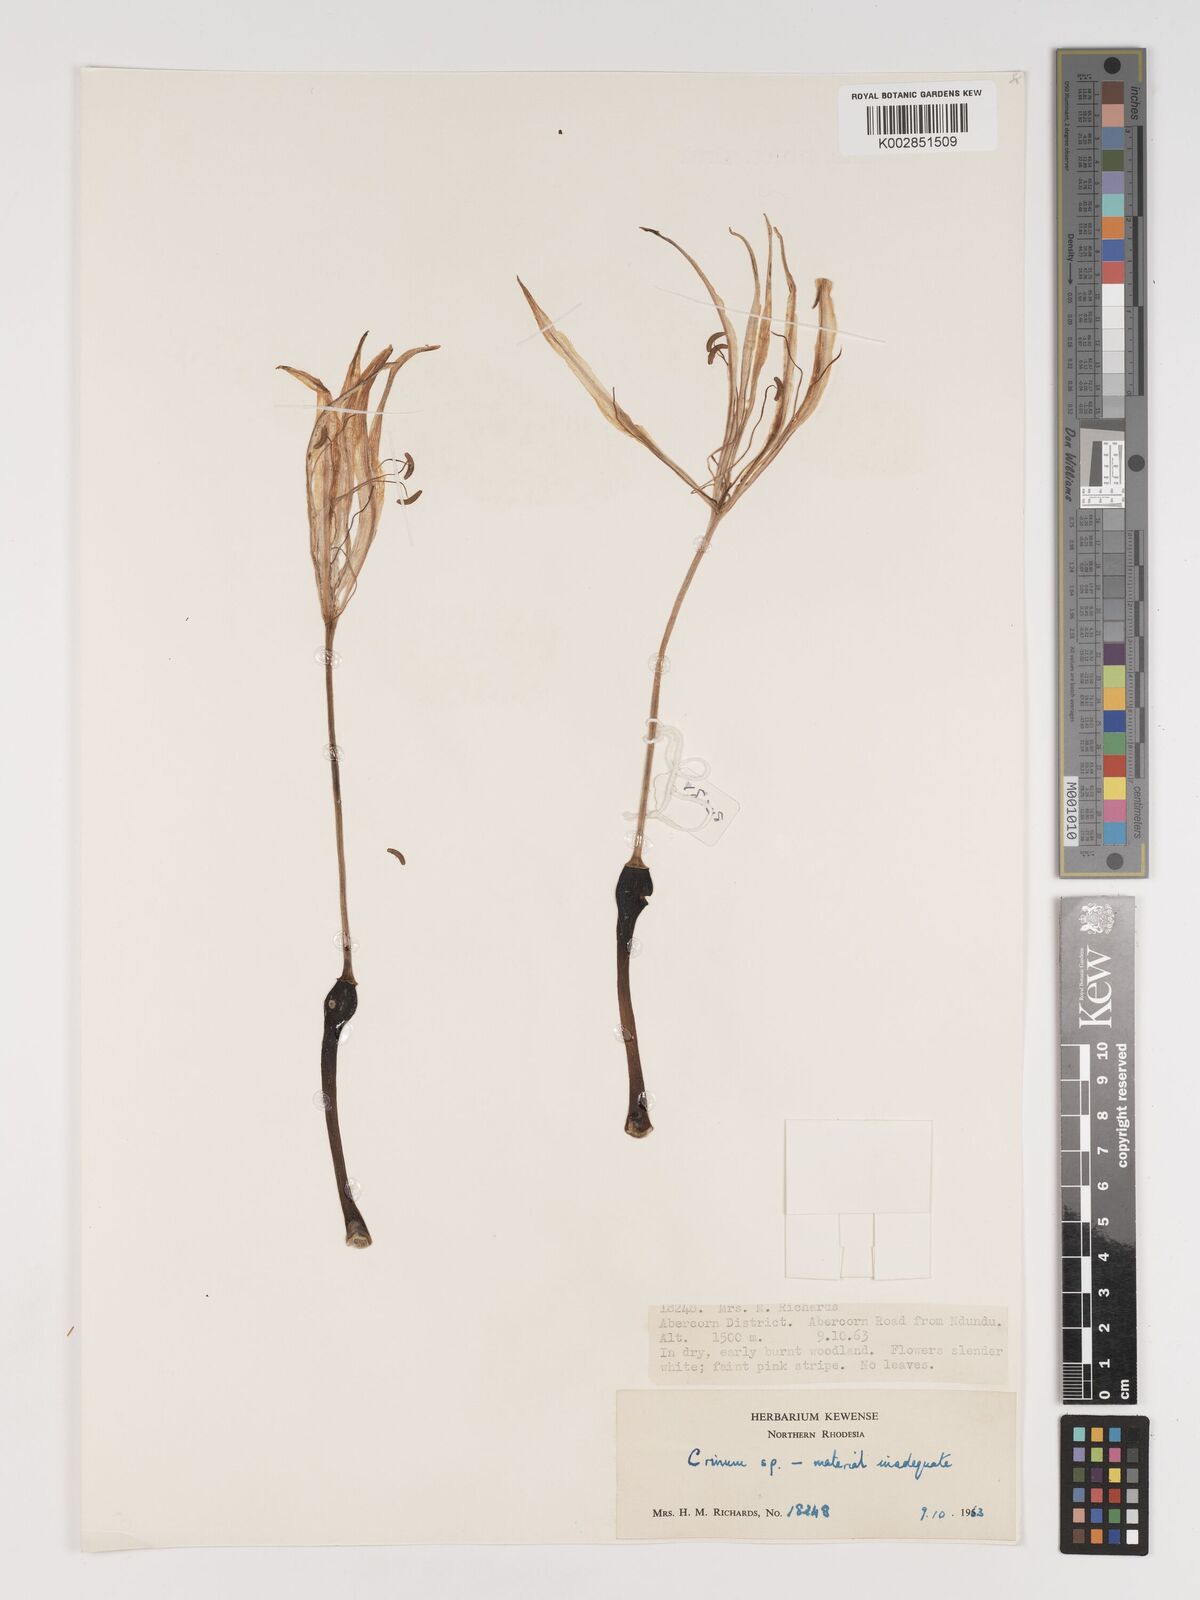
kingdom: Plantae
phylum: Tracheophyta
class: Liliopsida
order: Asparagales
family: Amaryllidaceae
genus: Crinum
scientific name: Crinum stuhlmannii
